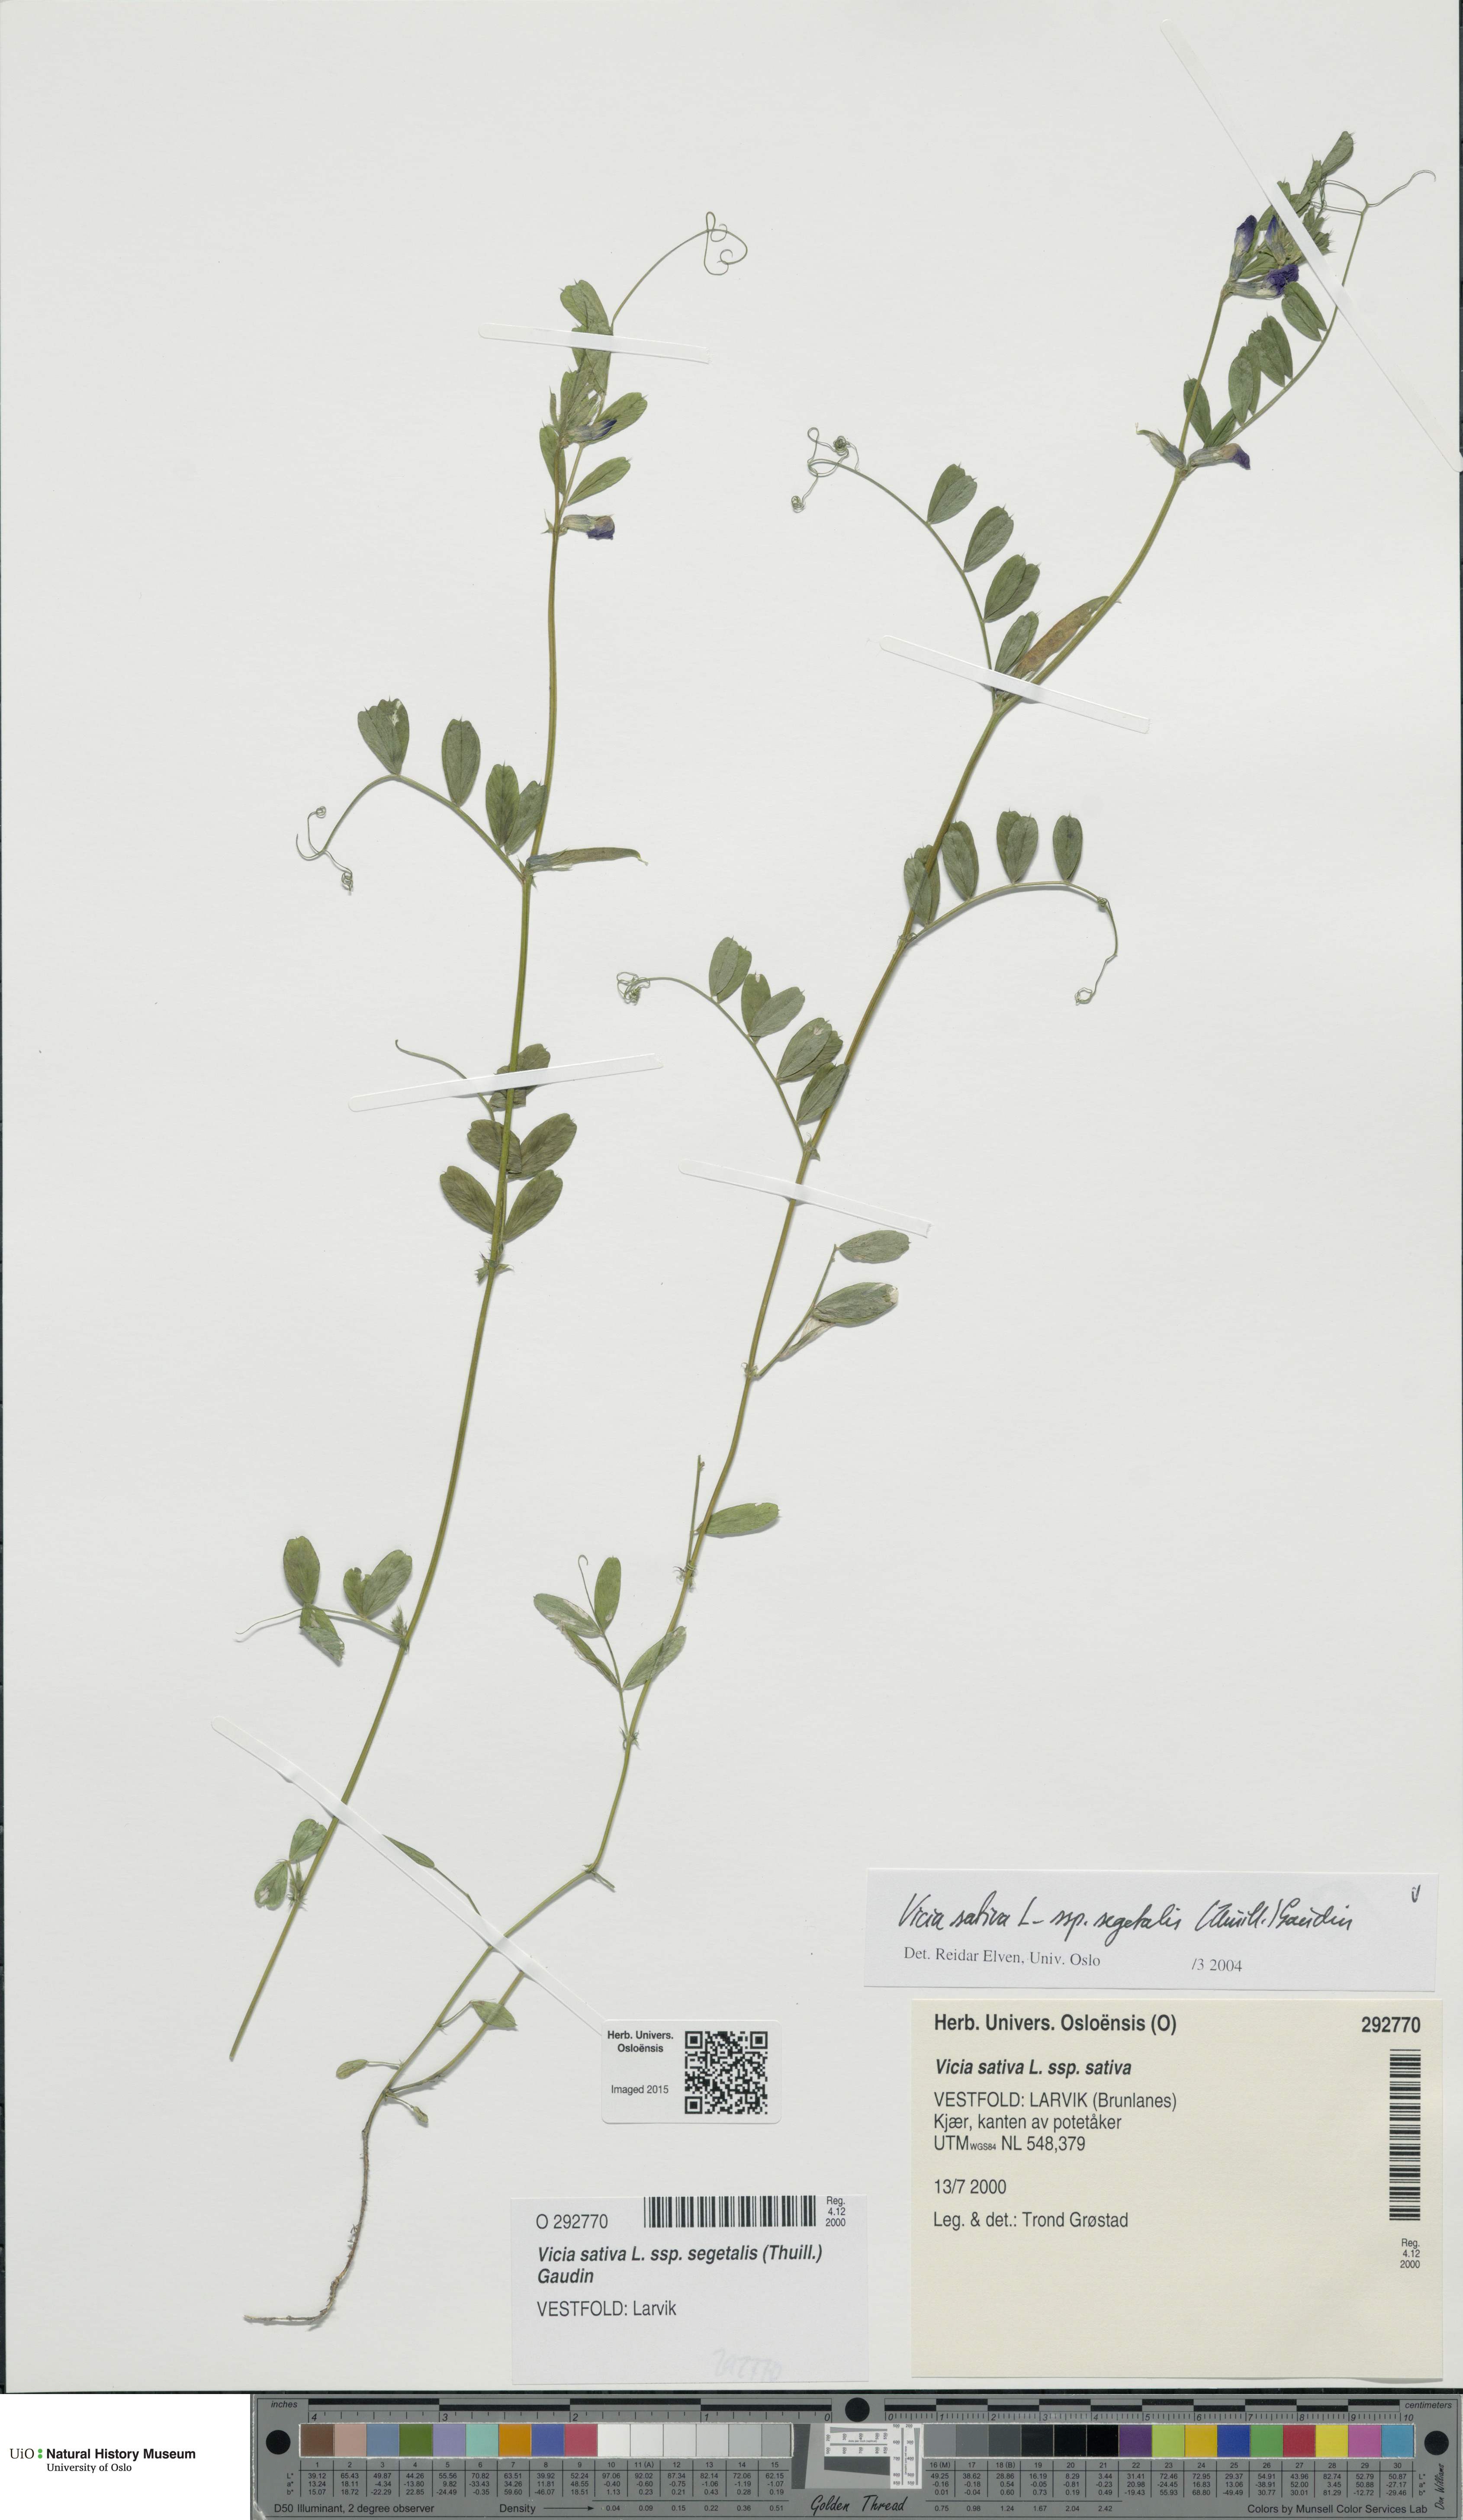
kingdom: Plantae
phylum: Tracheophyta
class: Magnoliopsida
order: Fabales
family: Fabaceae
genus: Vicia
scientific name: Vicia sativa
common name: Garden vetch
